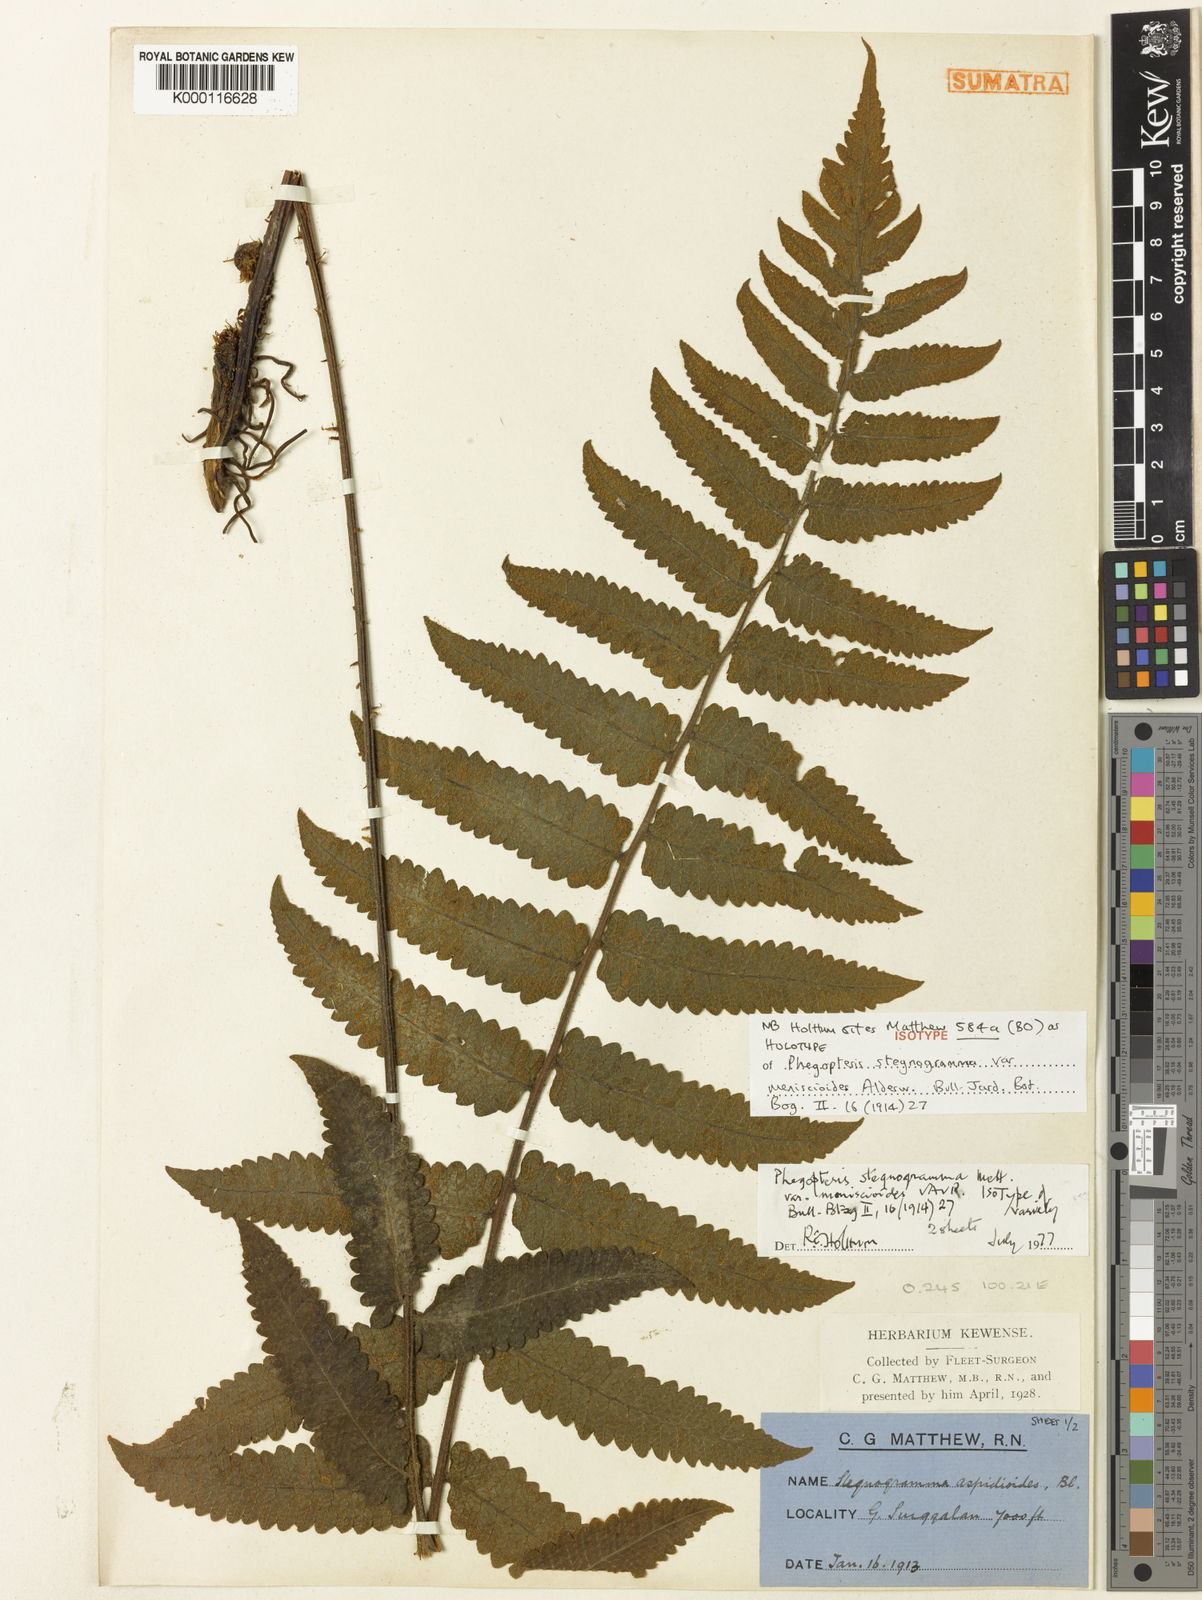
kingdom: Plantae
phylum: Tracheophyta
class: Polypodiopsida
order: Polypodiales
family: Thelypteridaceae
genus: Stegnogramma
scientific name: Stegnogramma aspidioides
